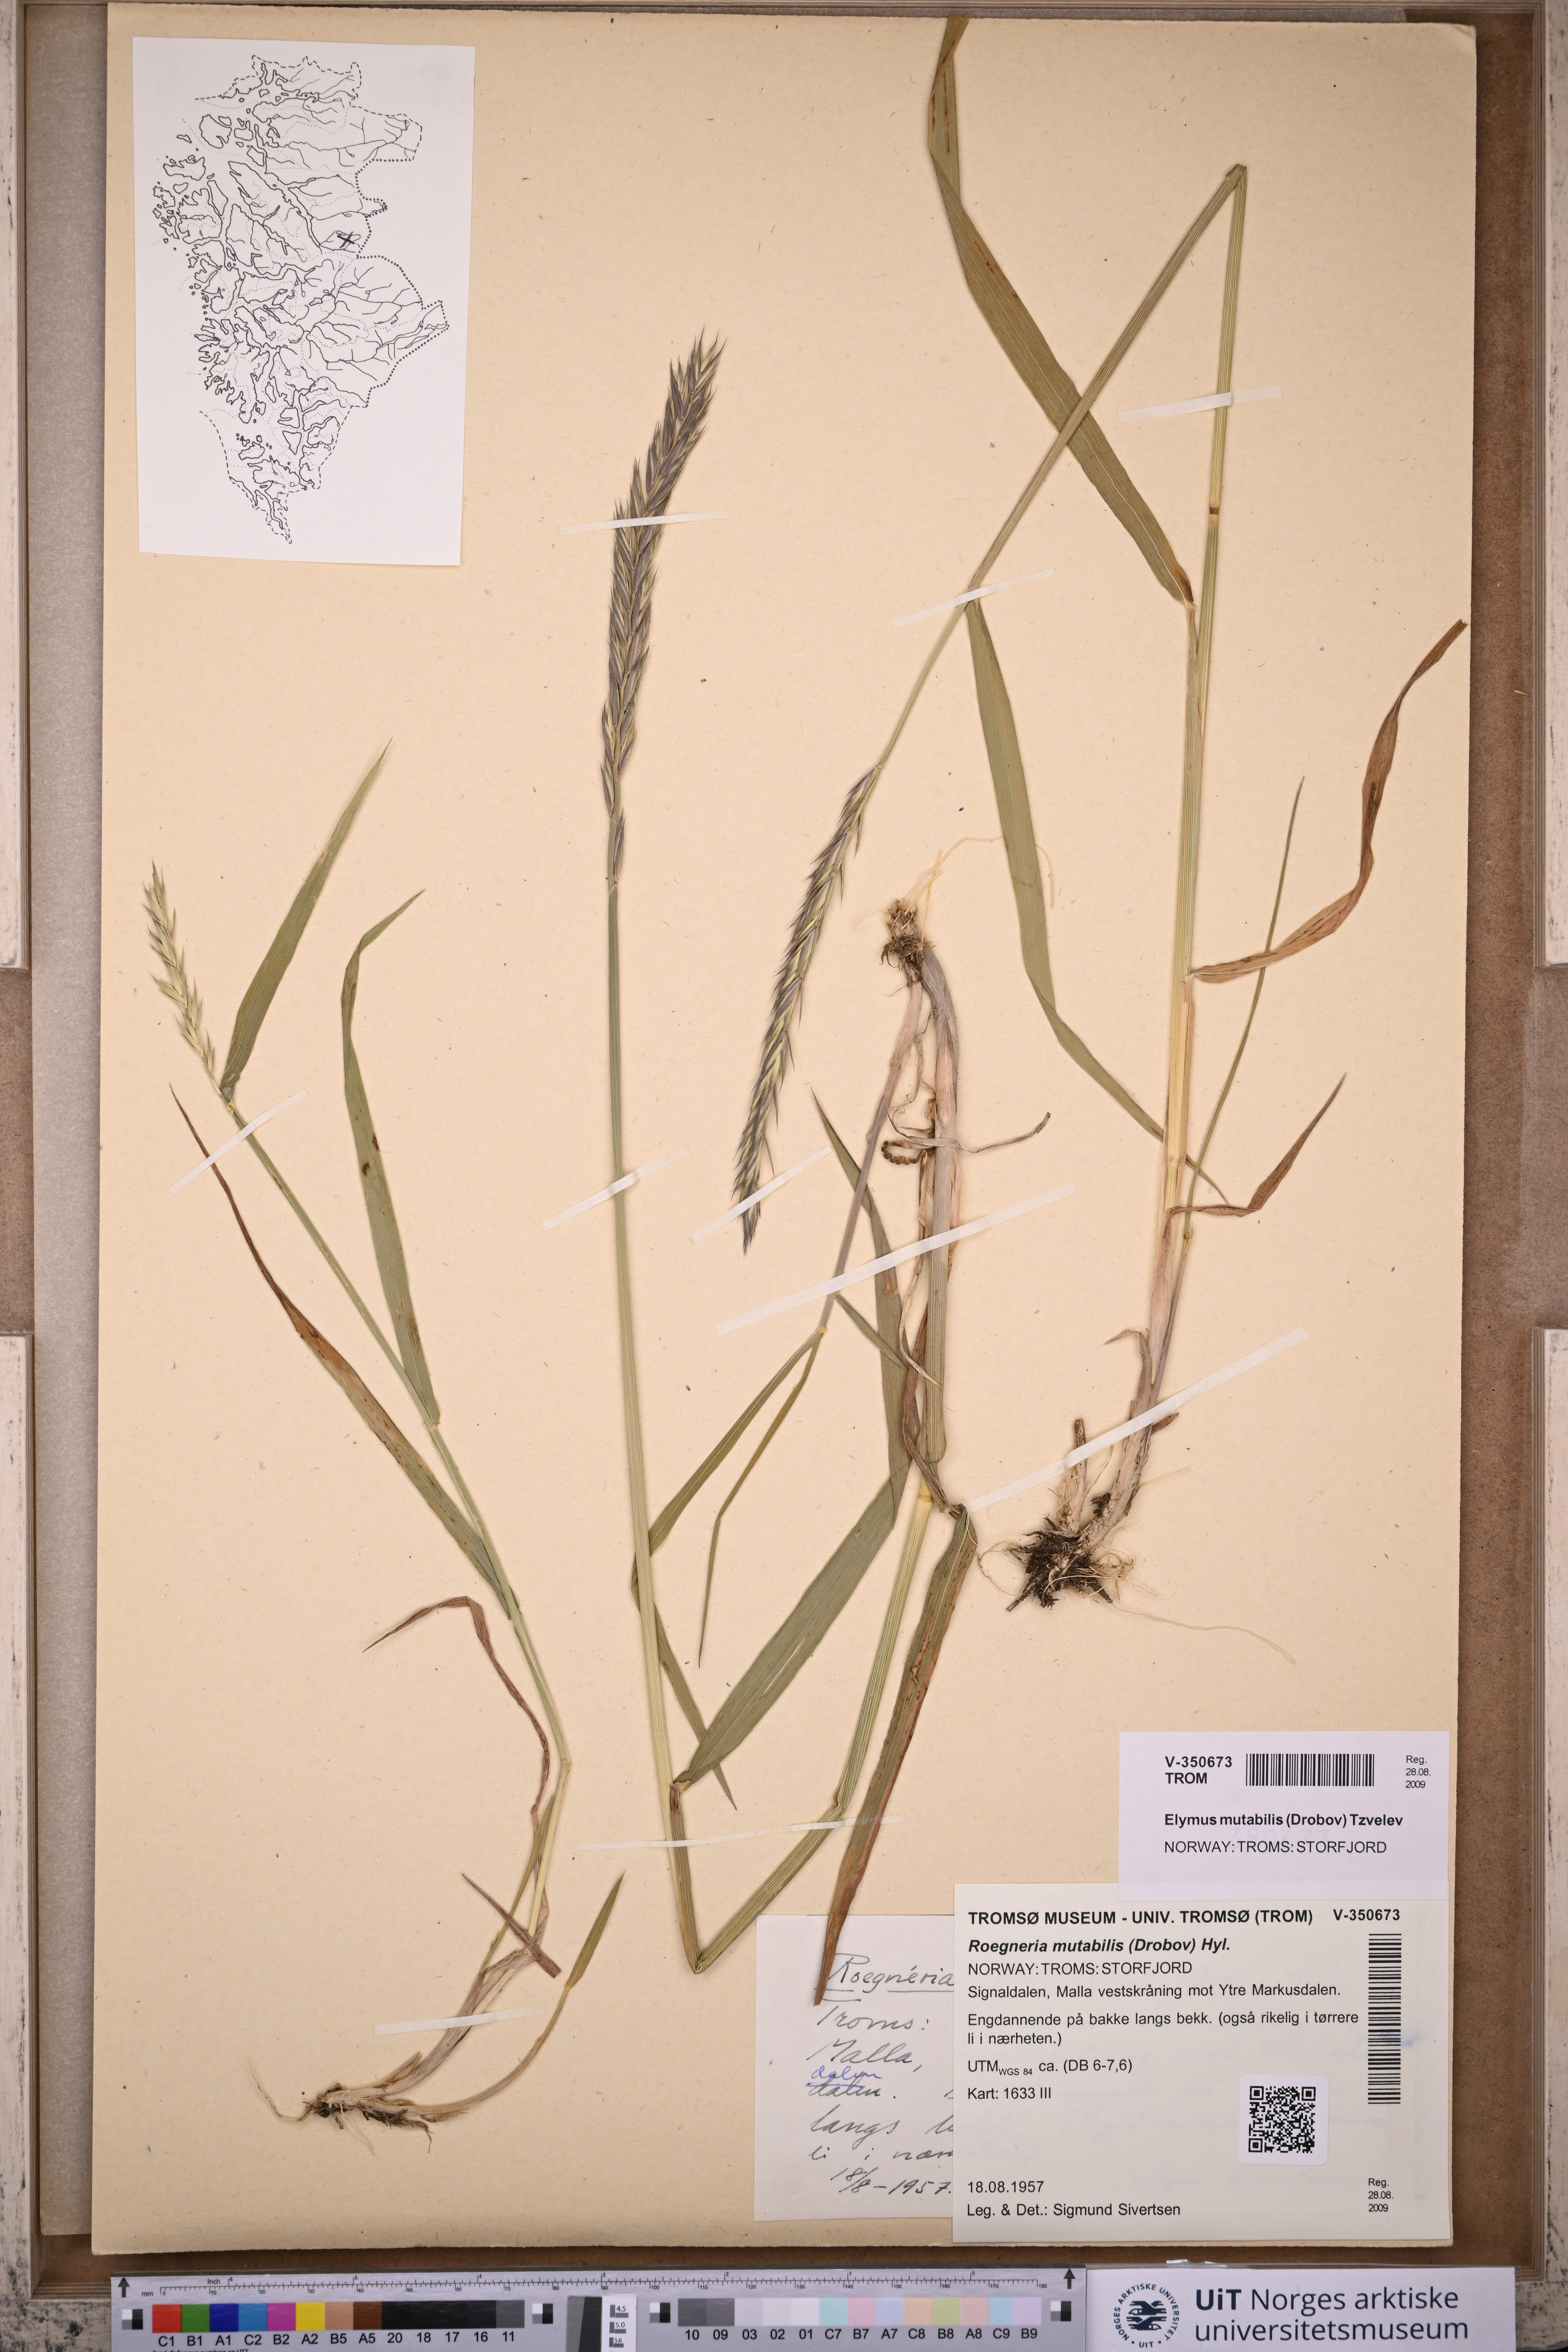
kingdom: Plantae
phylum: Tracheophyta
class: Liliopsida
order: Poales
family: Poaceae
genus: Elymus
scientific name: Elymus mutabilis
